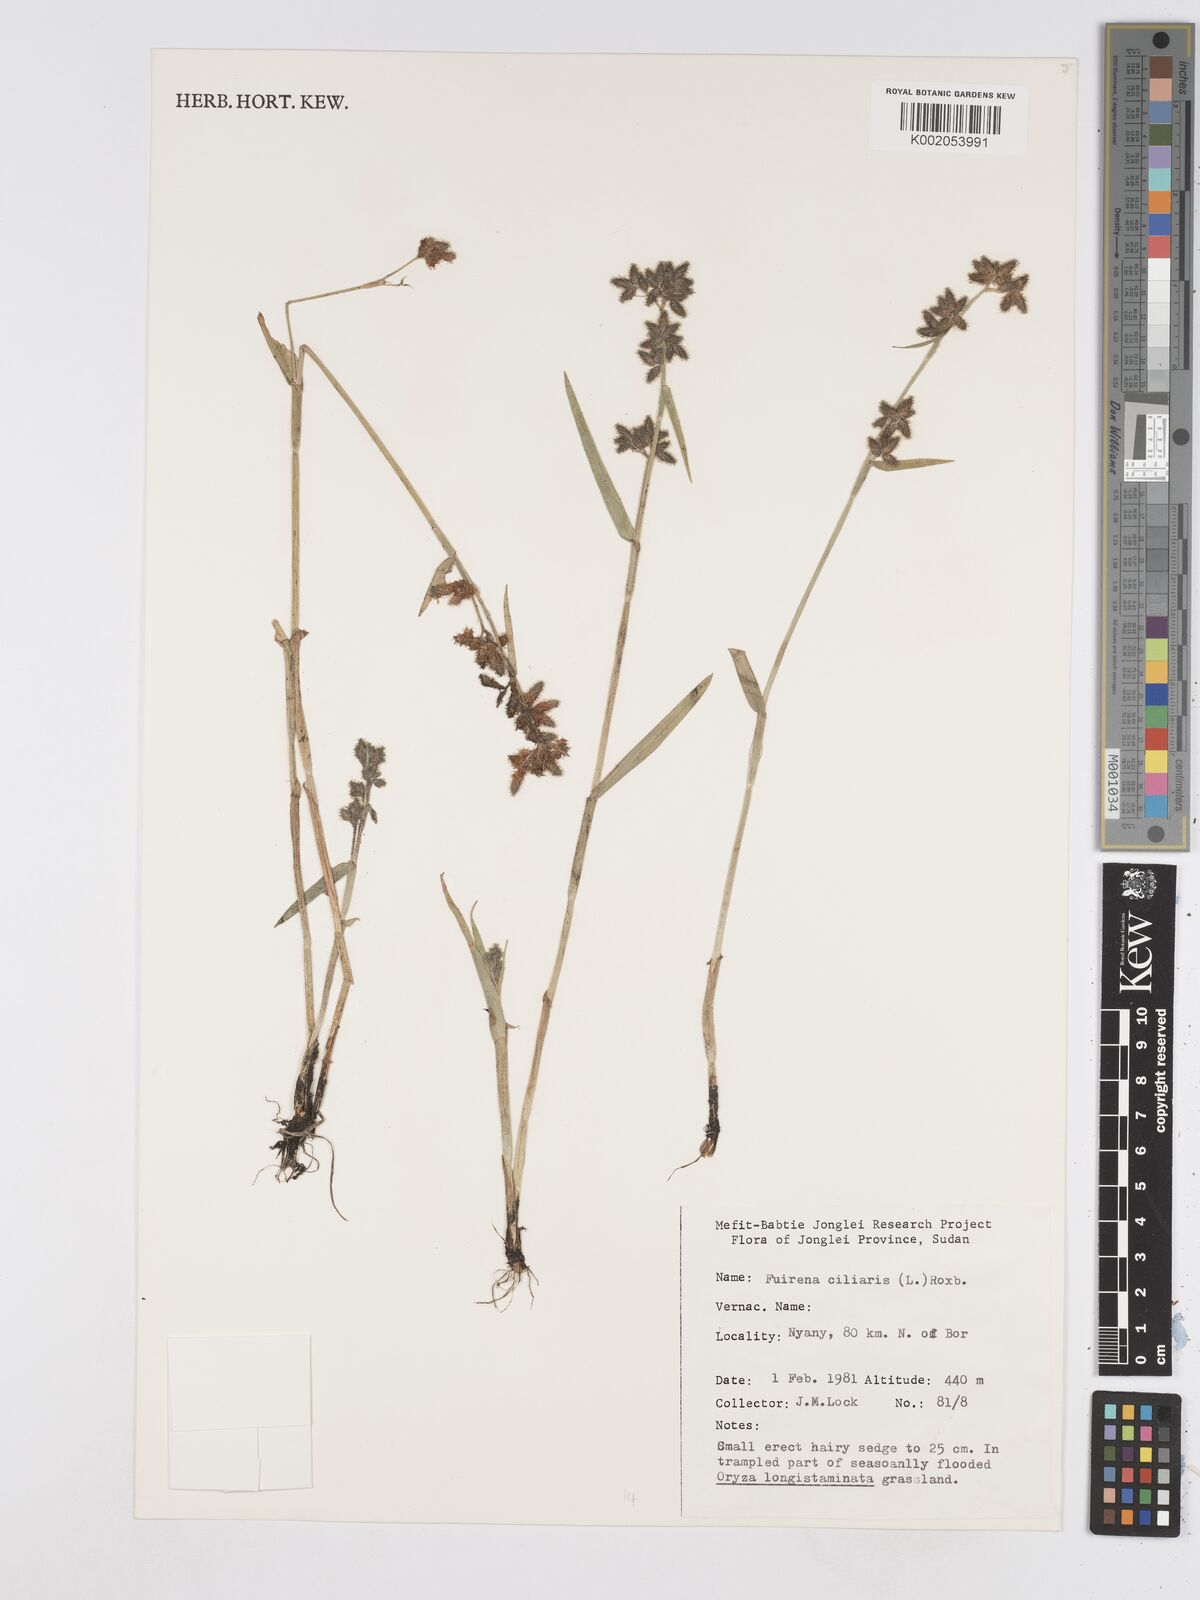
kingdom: Plantae
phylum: Tracheophyta
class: Liliopsida
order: Poales
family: Cyperaceae
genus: Fuirena
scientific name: Fuirena ciliaris
